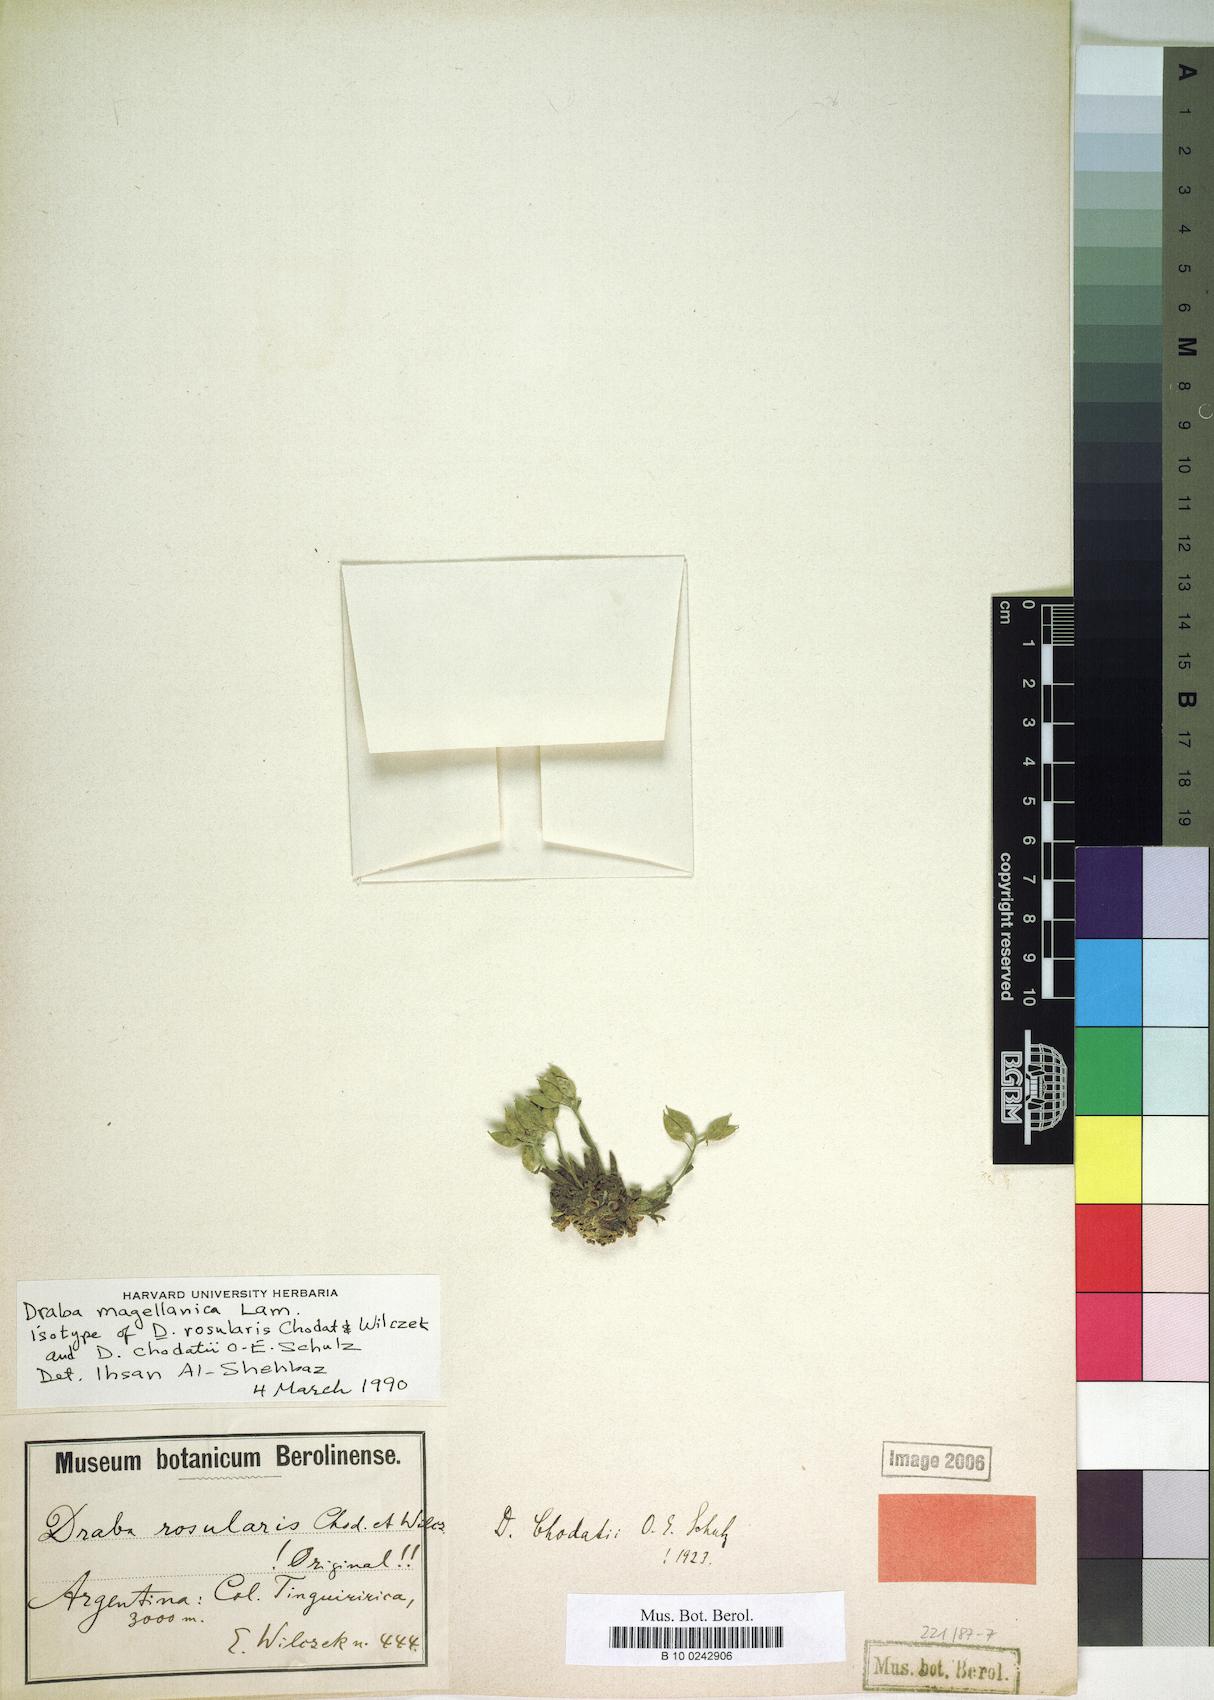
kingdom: Plantae
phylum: Tracheophyta
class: Magnoliopsida
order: Brassicales
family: Brassicaceae
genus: Draba
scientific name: Draba magellanica
